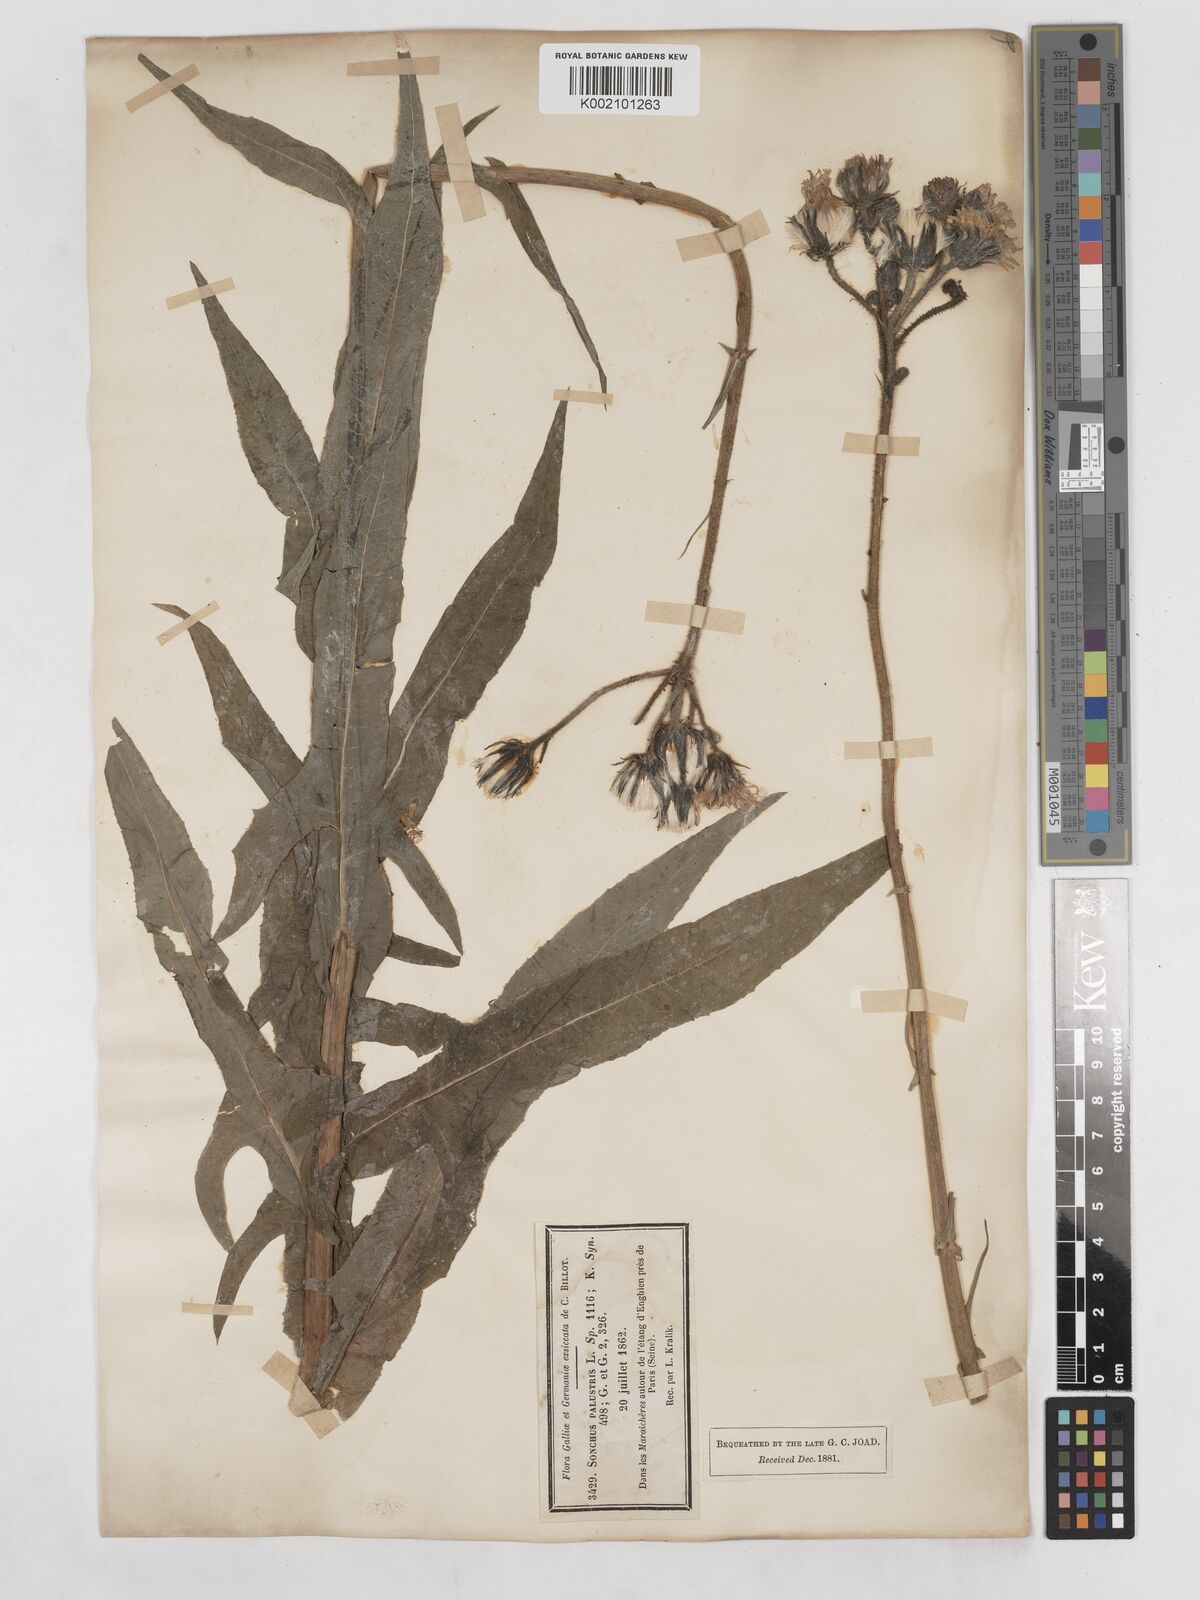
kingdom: Plantae
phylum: Tracheophyta
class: Magnoliopsida
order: Asterales
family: Asteraceae
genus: Sonchus
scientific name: Sonchus palustris
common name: Marsh sow-thistle
